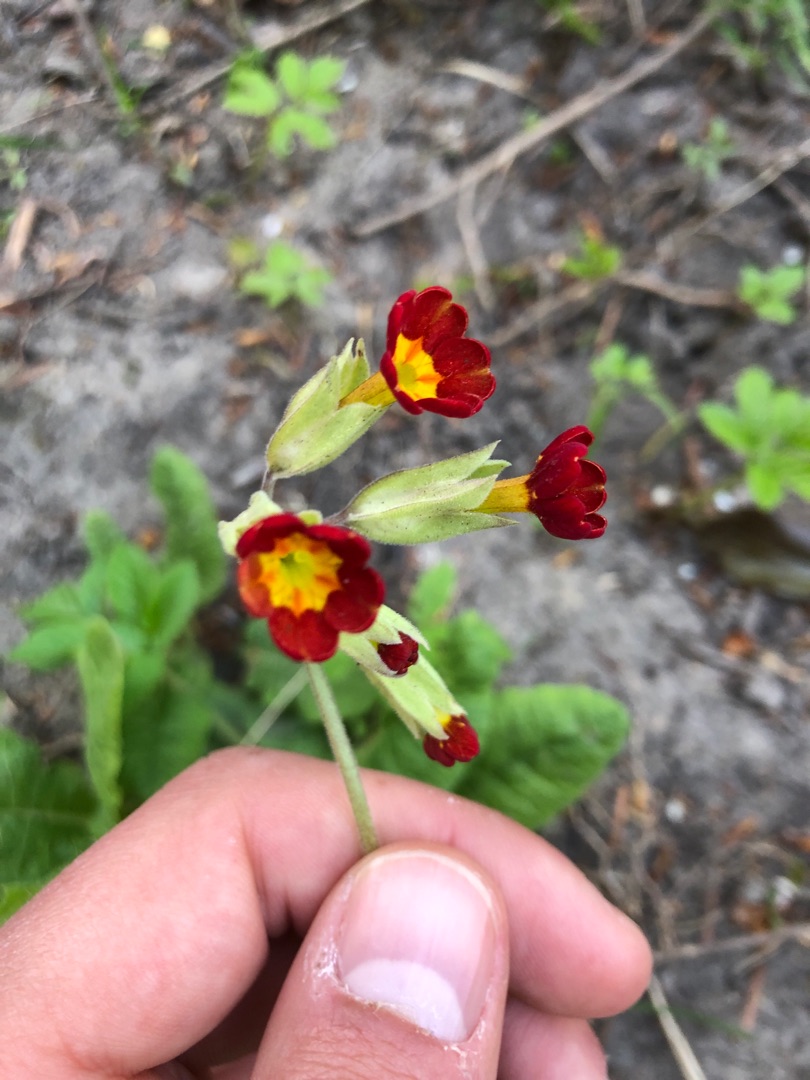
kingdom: Plantae
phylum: Tracheophyta
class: Magnoliopsida
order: Ericales
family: Primulaceae
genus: Primula
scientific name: Primula veris
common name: Hulkravet kodriver
